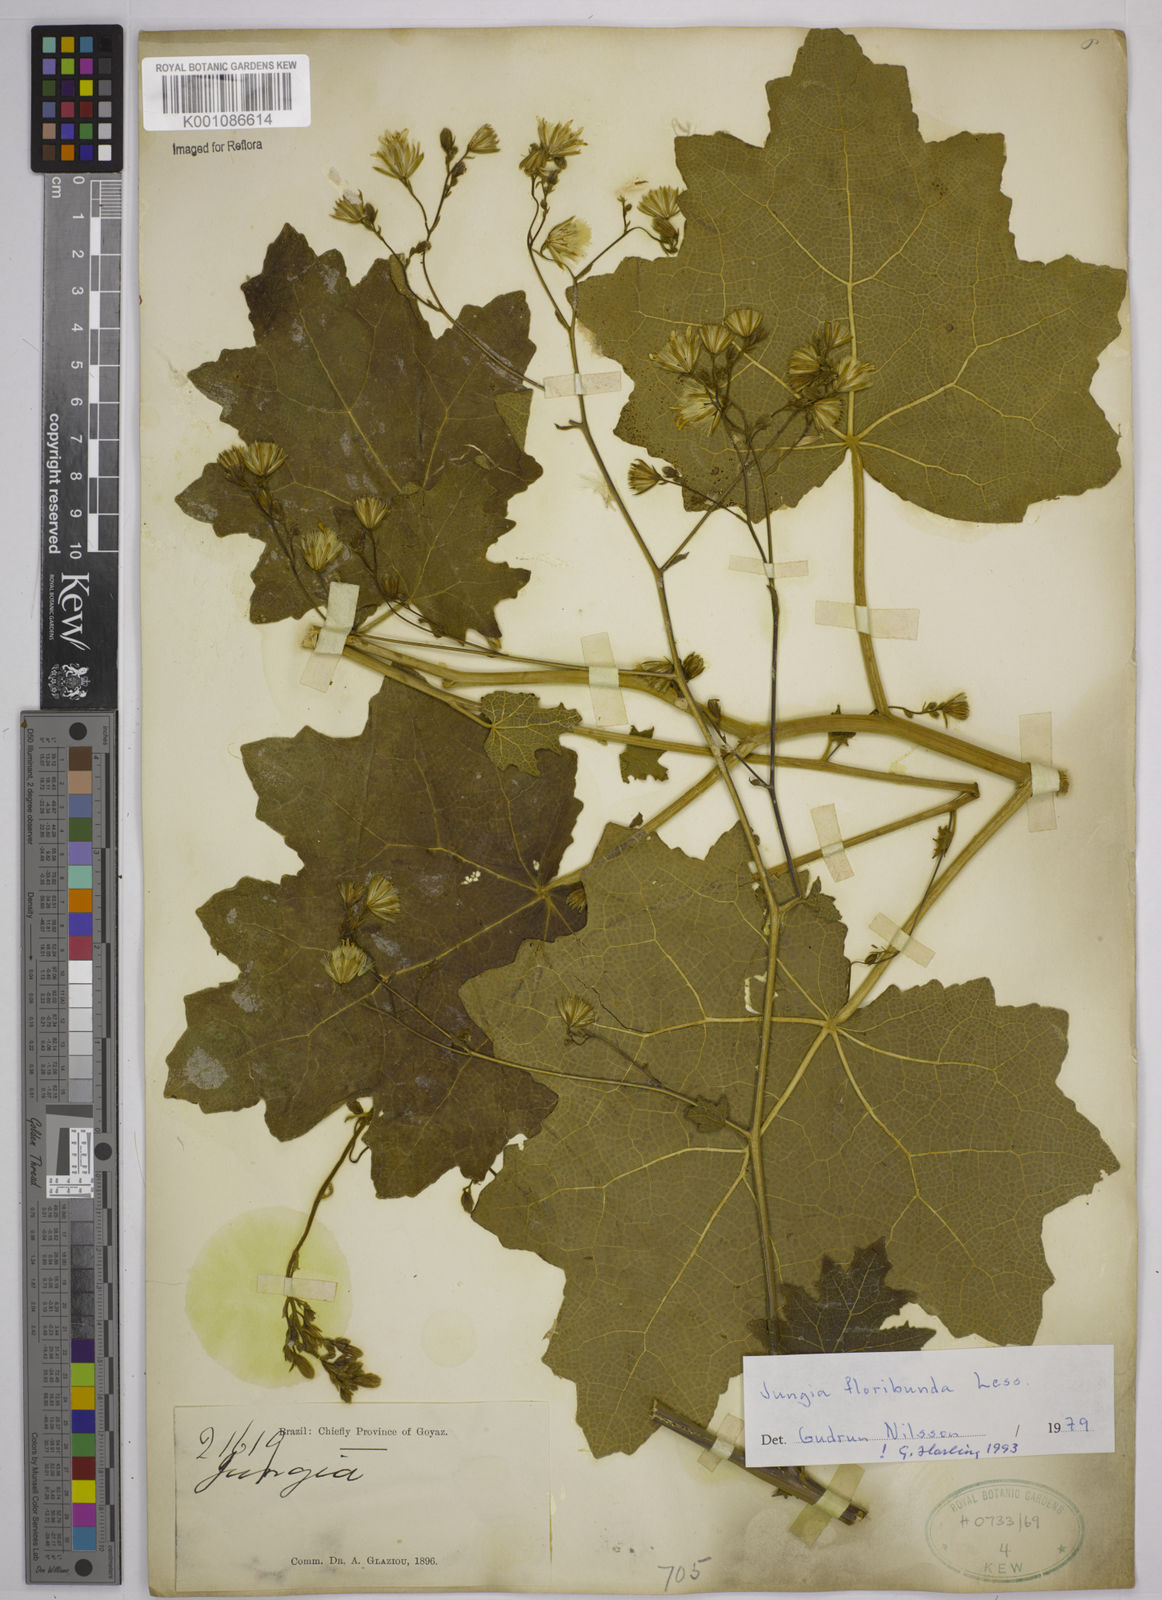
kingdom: Plantae
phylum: Tracheophyta
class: Magnoliopsida
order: Asterales
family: Asteraceae
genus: Jungia
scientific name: Jungia floribunda
